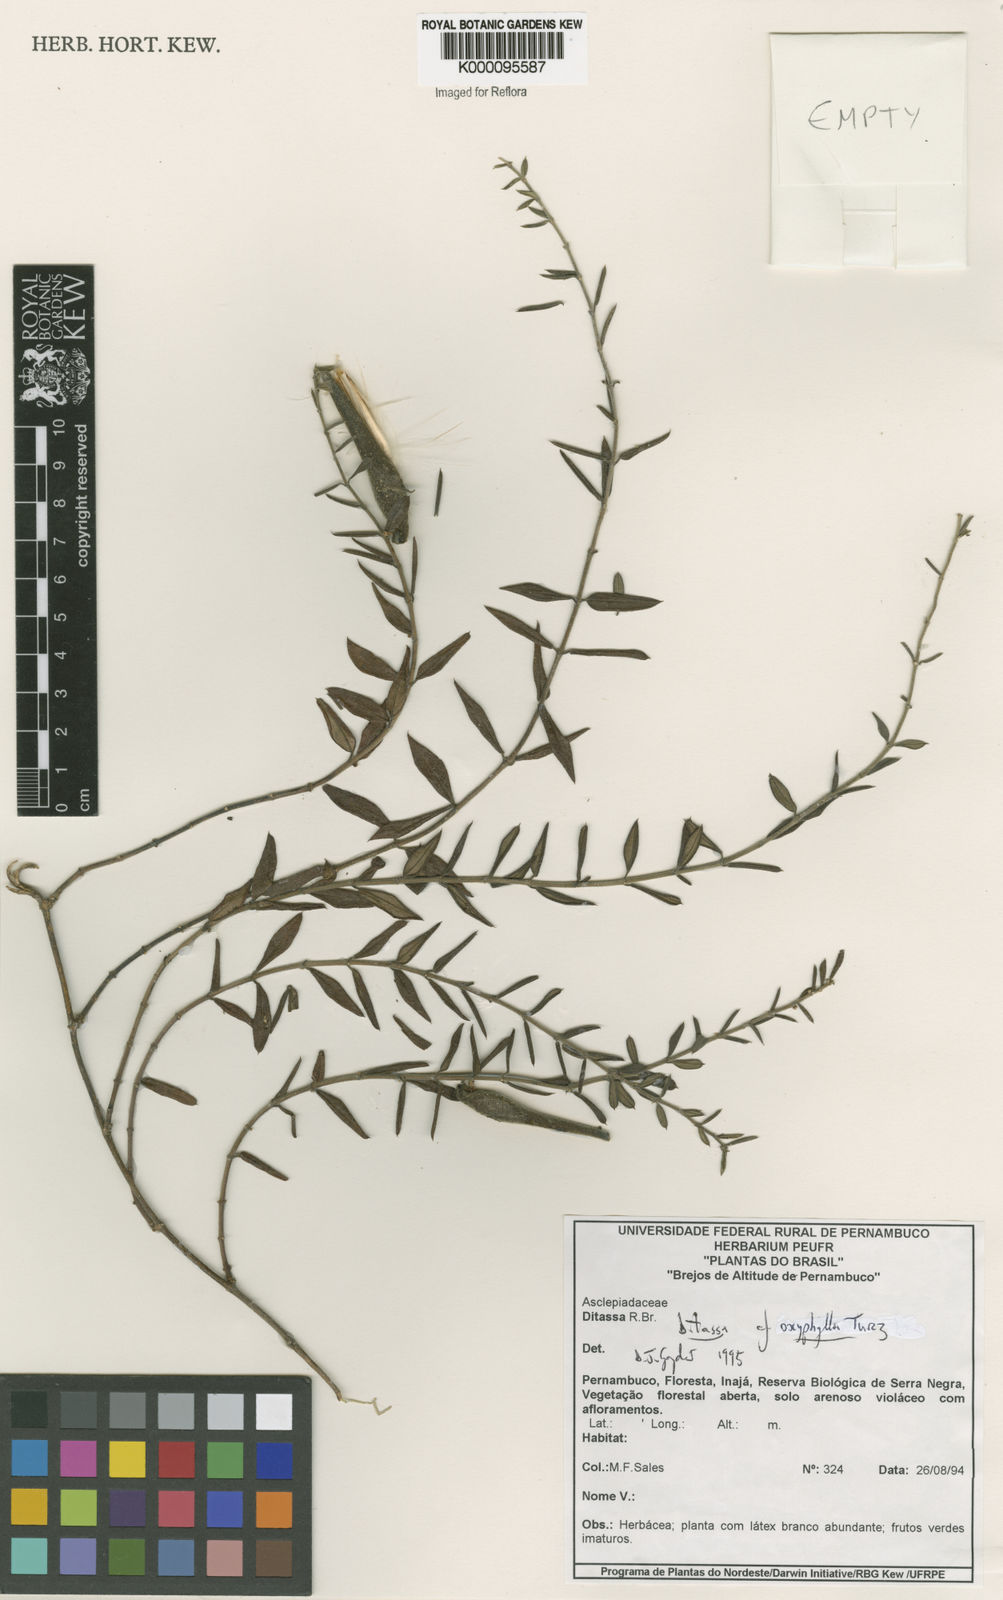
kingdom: Plantae
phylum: Tracheophyta
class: Magnoliopsida
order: Gentianales
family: Apocynaceae
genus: Ditassa
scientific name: Ditassa oxyphylla
